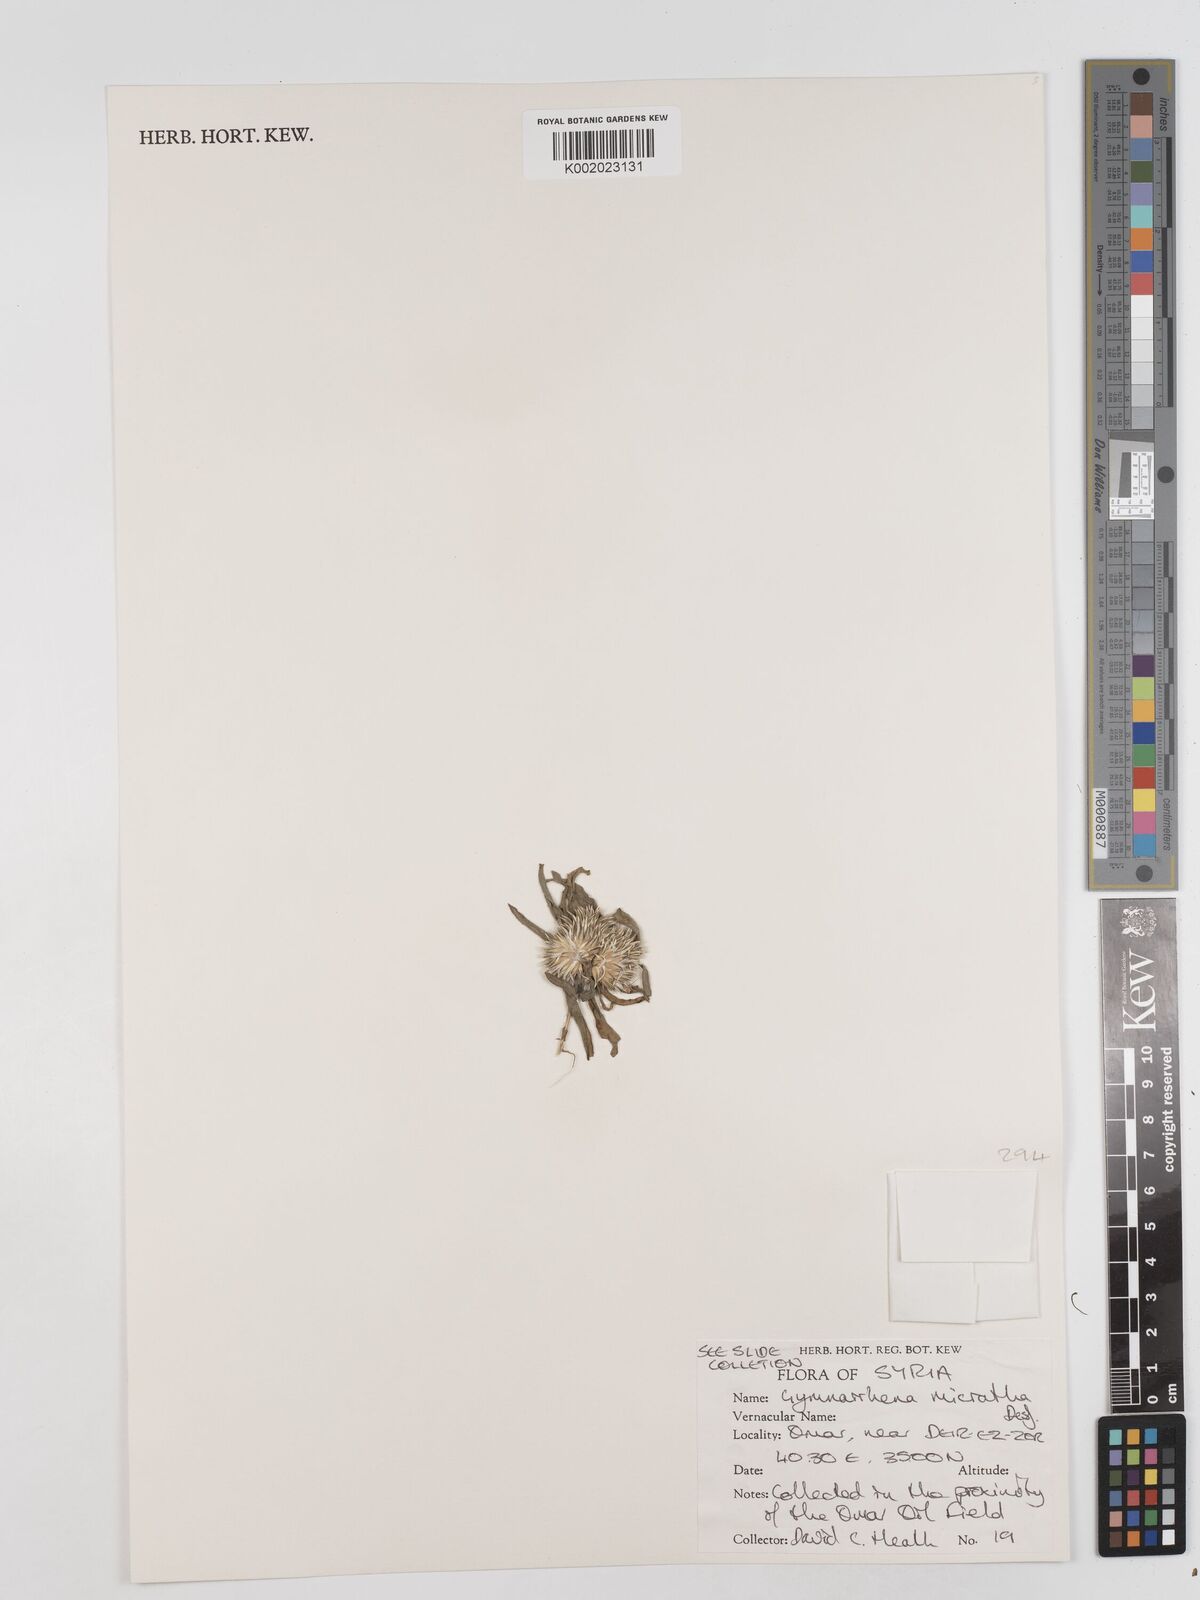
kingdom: Plantae
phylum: Tracheophyta
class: Magnoliopsida
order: Asterales
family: Asteraceae
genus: Gymnarrhena
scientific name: Gymnarrhena micrantha
